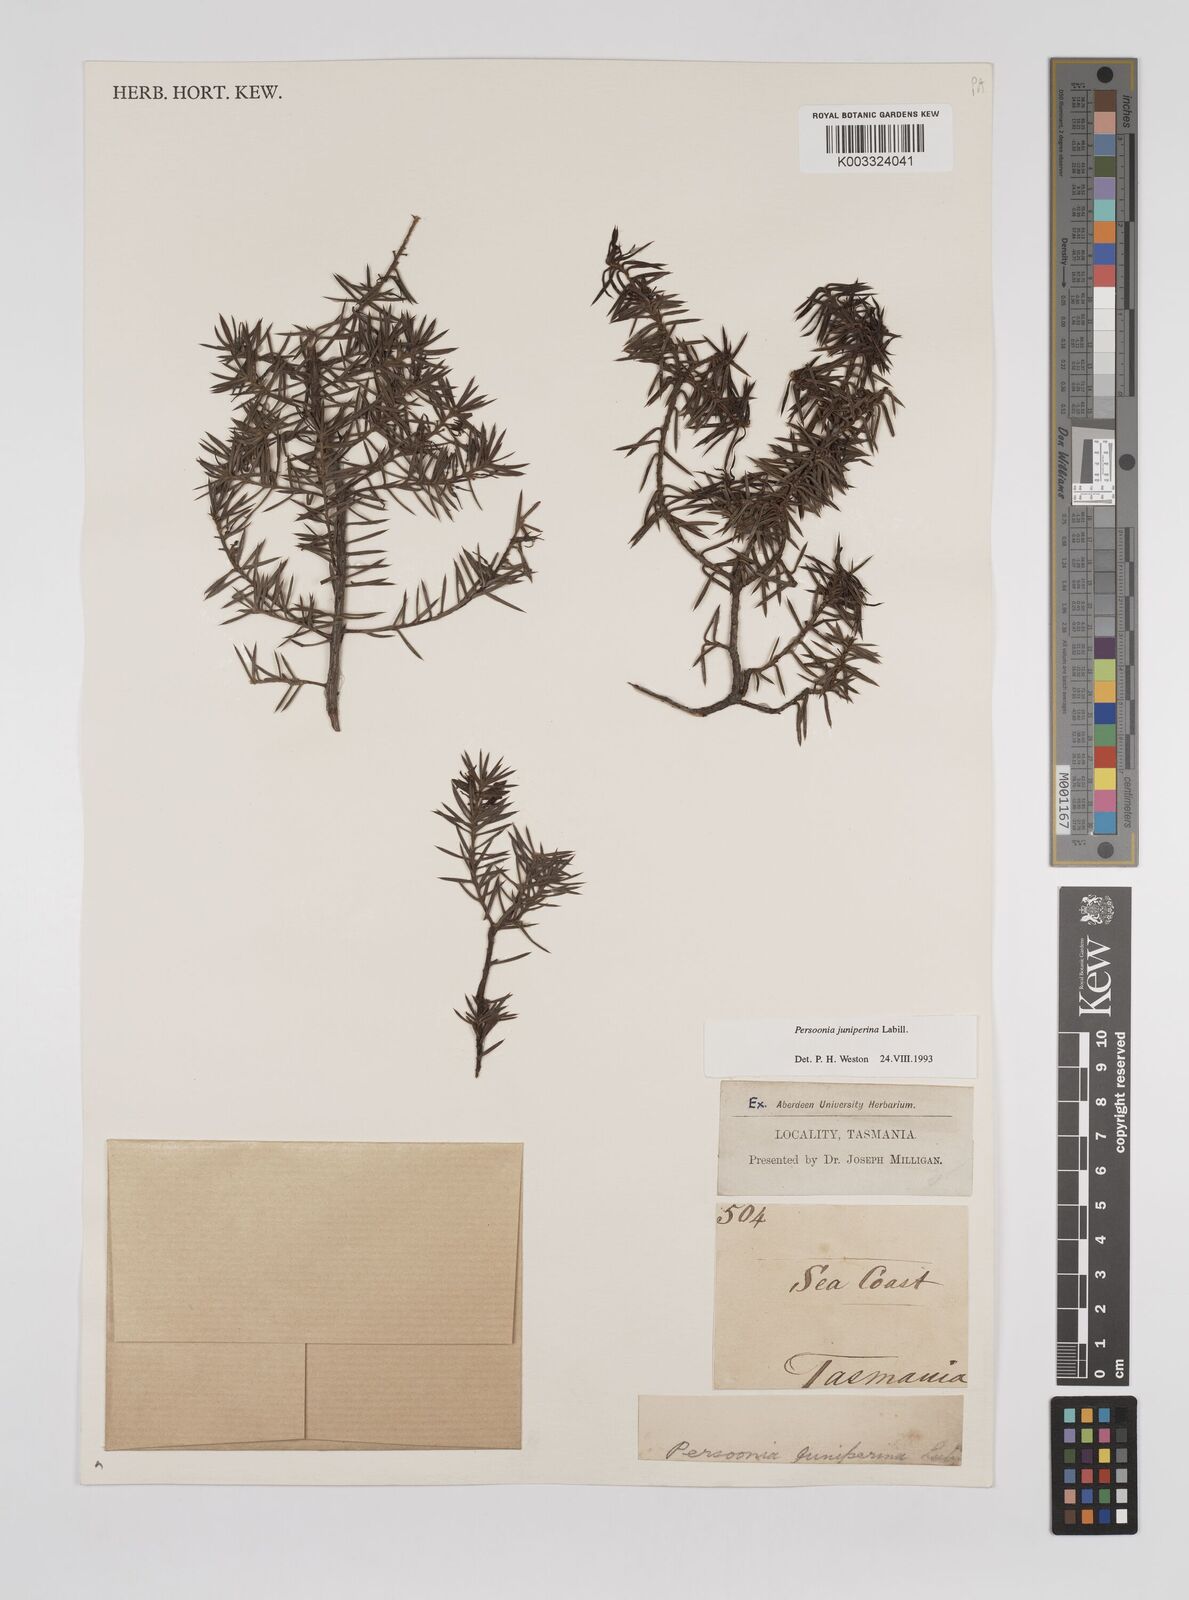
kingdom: Plantae
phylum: Tracheophyta
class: Magnoliopsida
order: Proteales
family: Proteaceae
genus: Persoonia
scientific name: Persoonia juniperina
